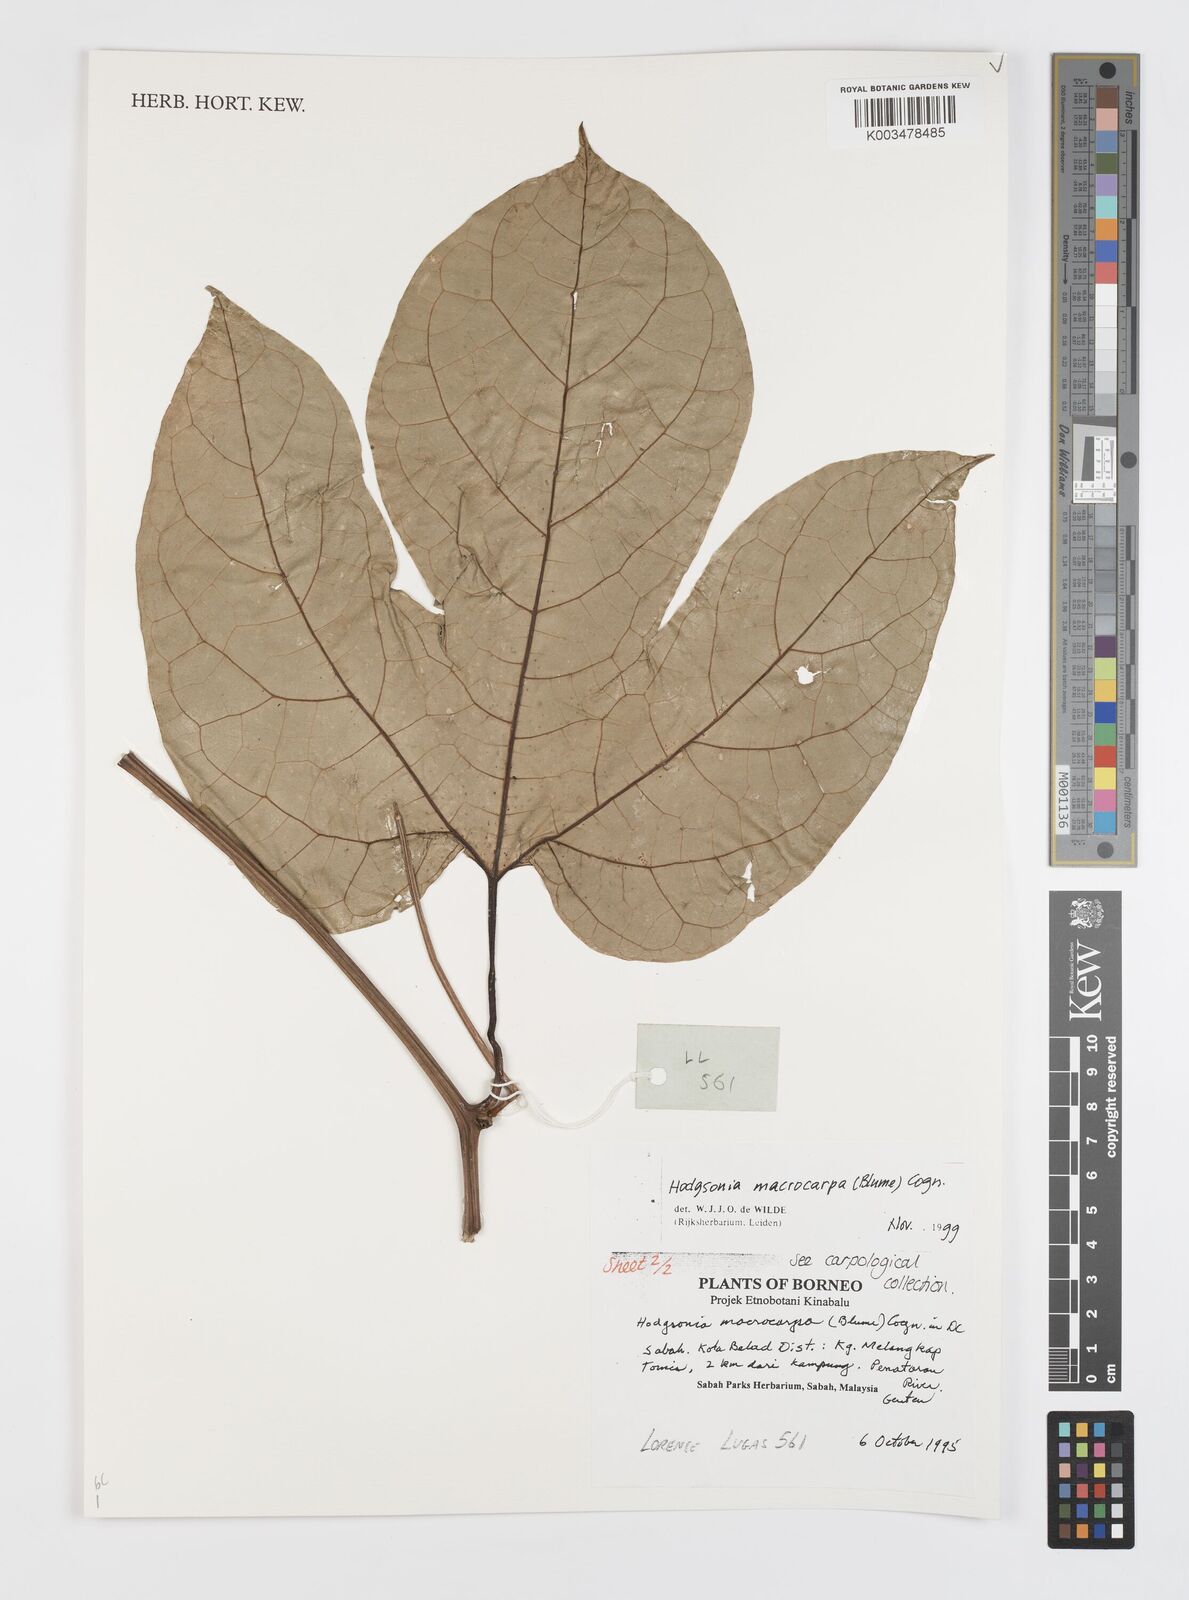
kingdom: Plantae
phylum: Tracheophyta
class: Magnoliopsida
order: Cucurbitales
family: Cucurbitaceae
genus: Hodgsonia
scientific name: Hodgsonia macrocarpa
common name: Chinese lardfruit
